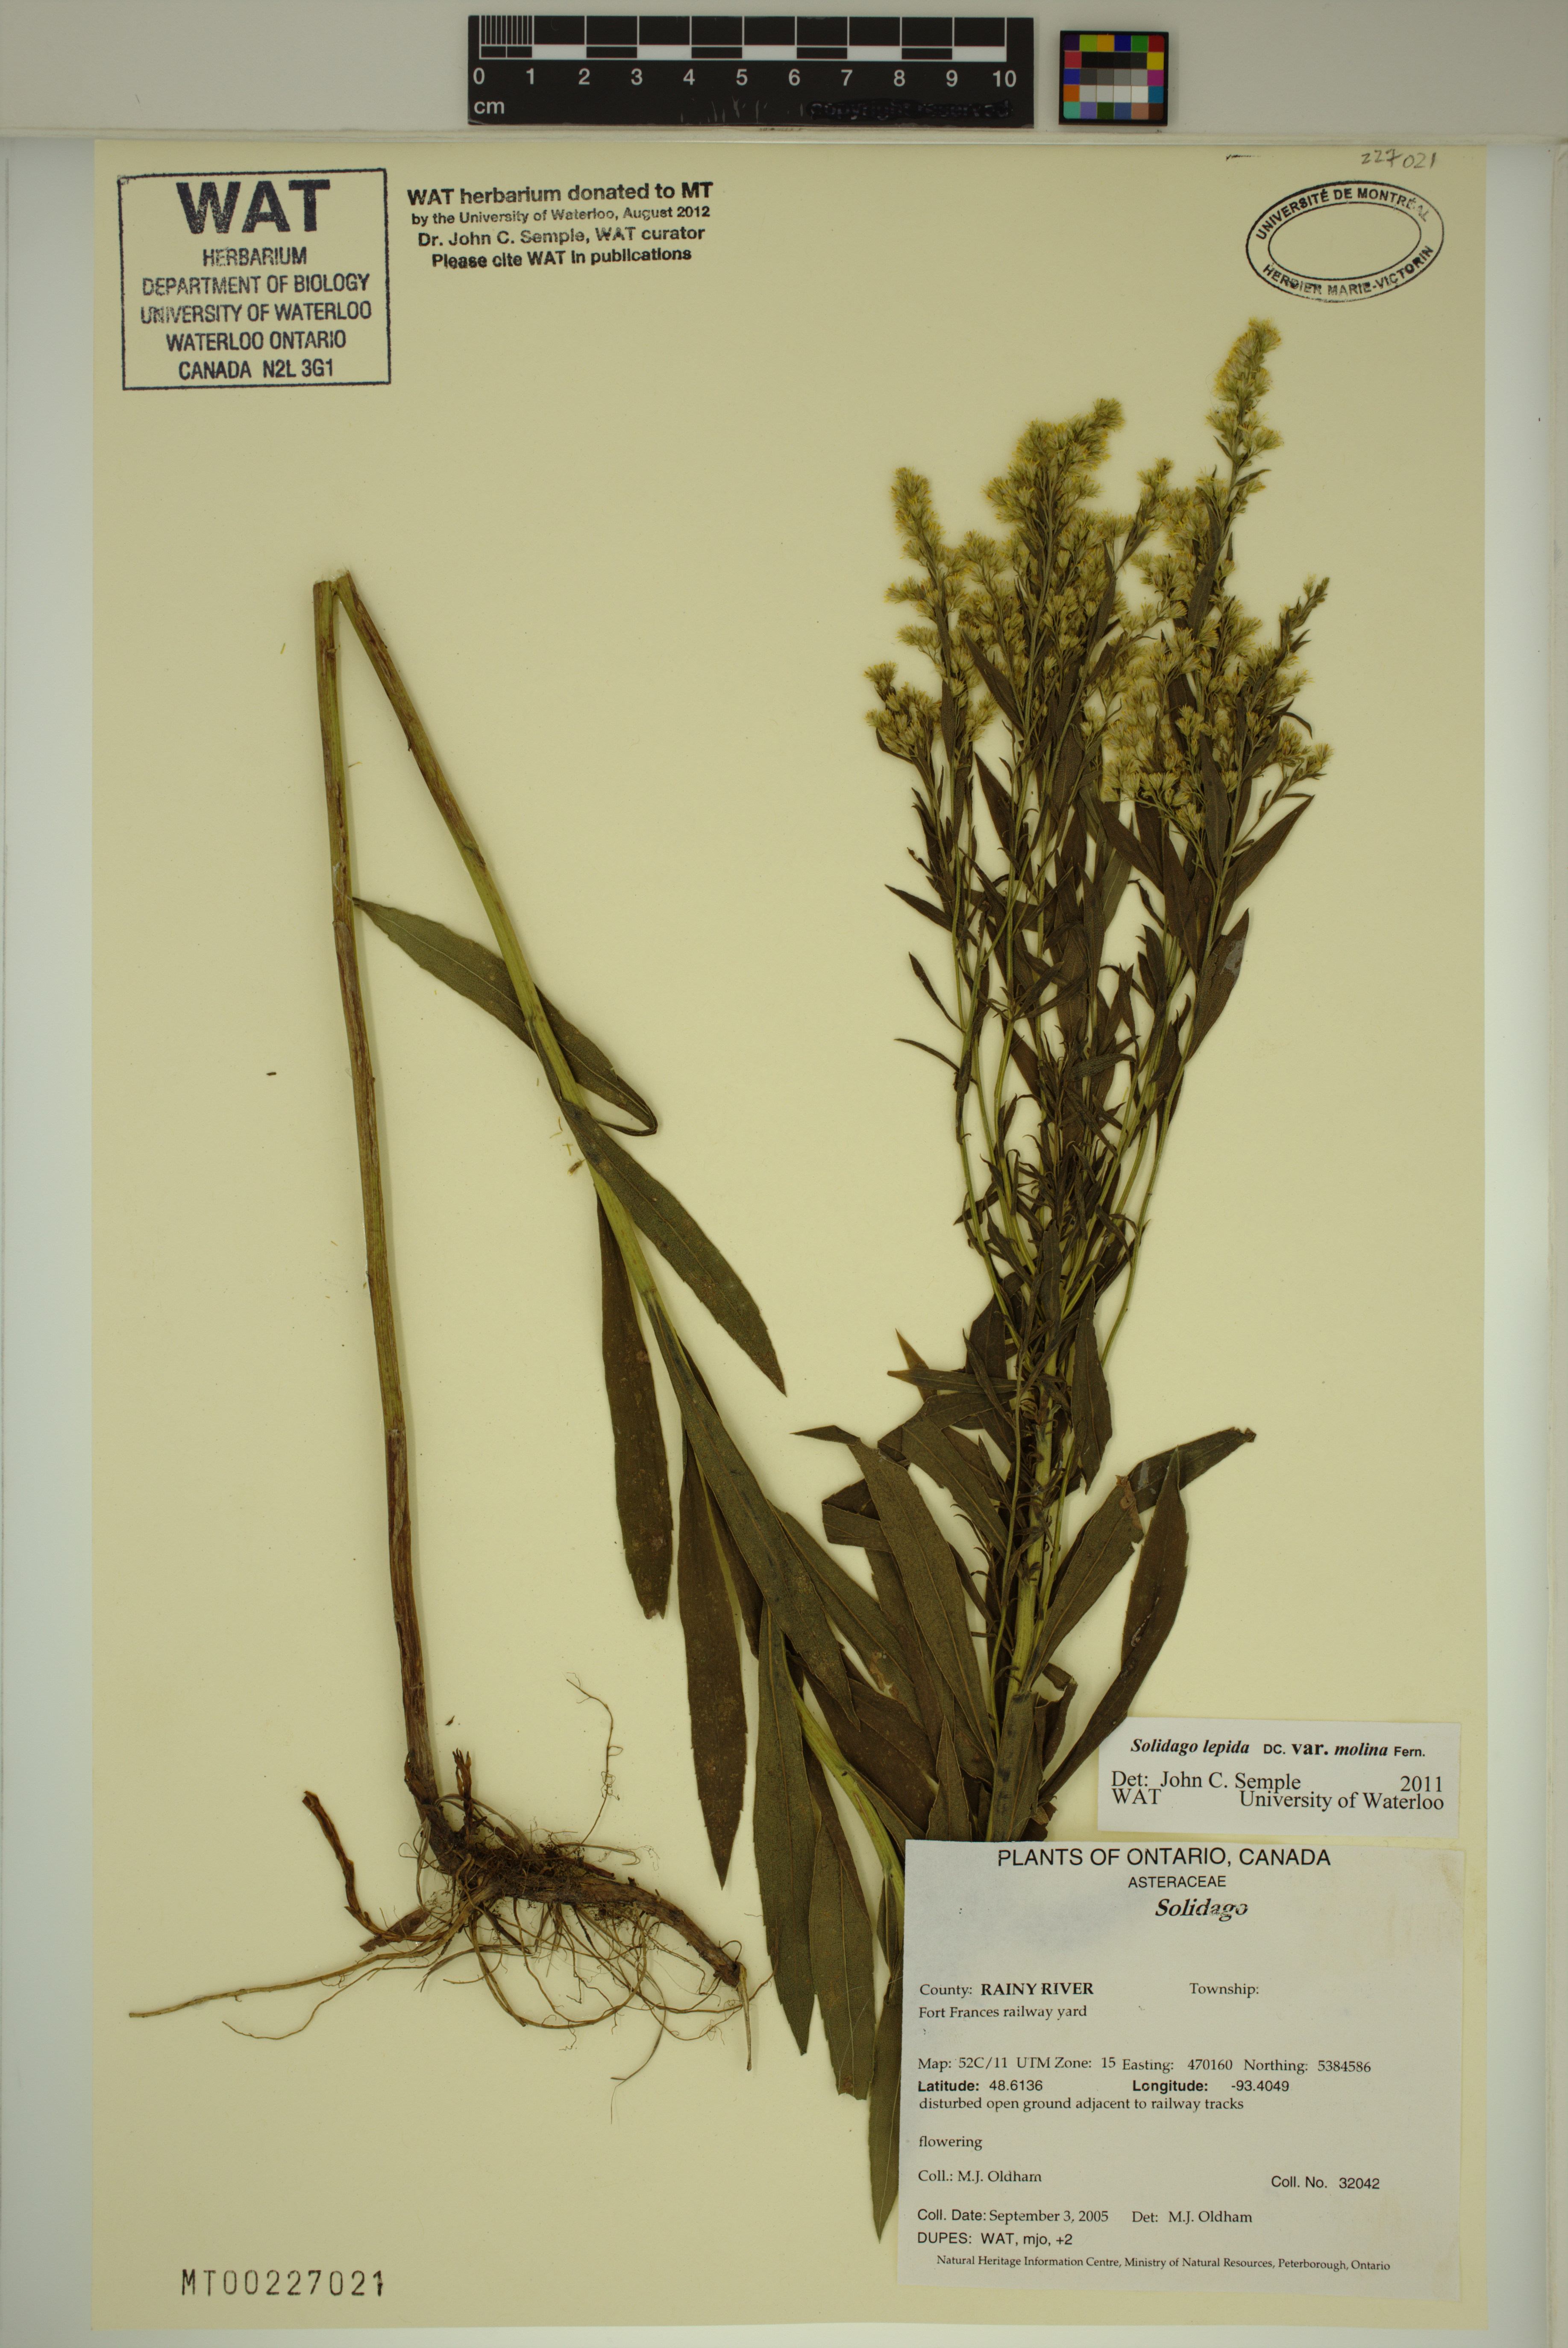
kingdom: Plantae
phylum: Tracheophyta
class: Magnoliopsida
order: Asterales
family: Asteraceae
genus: Solidago
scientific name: Solidago fallax
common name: Big-toothed canada goldenrod
